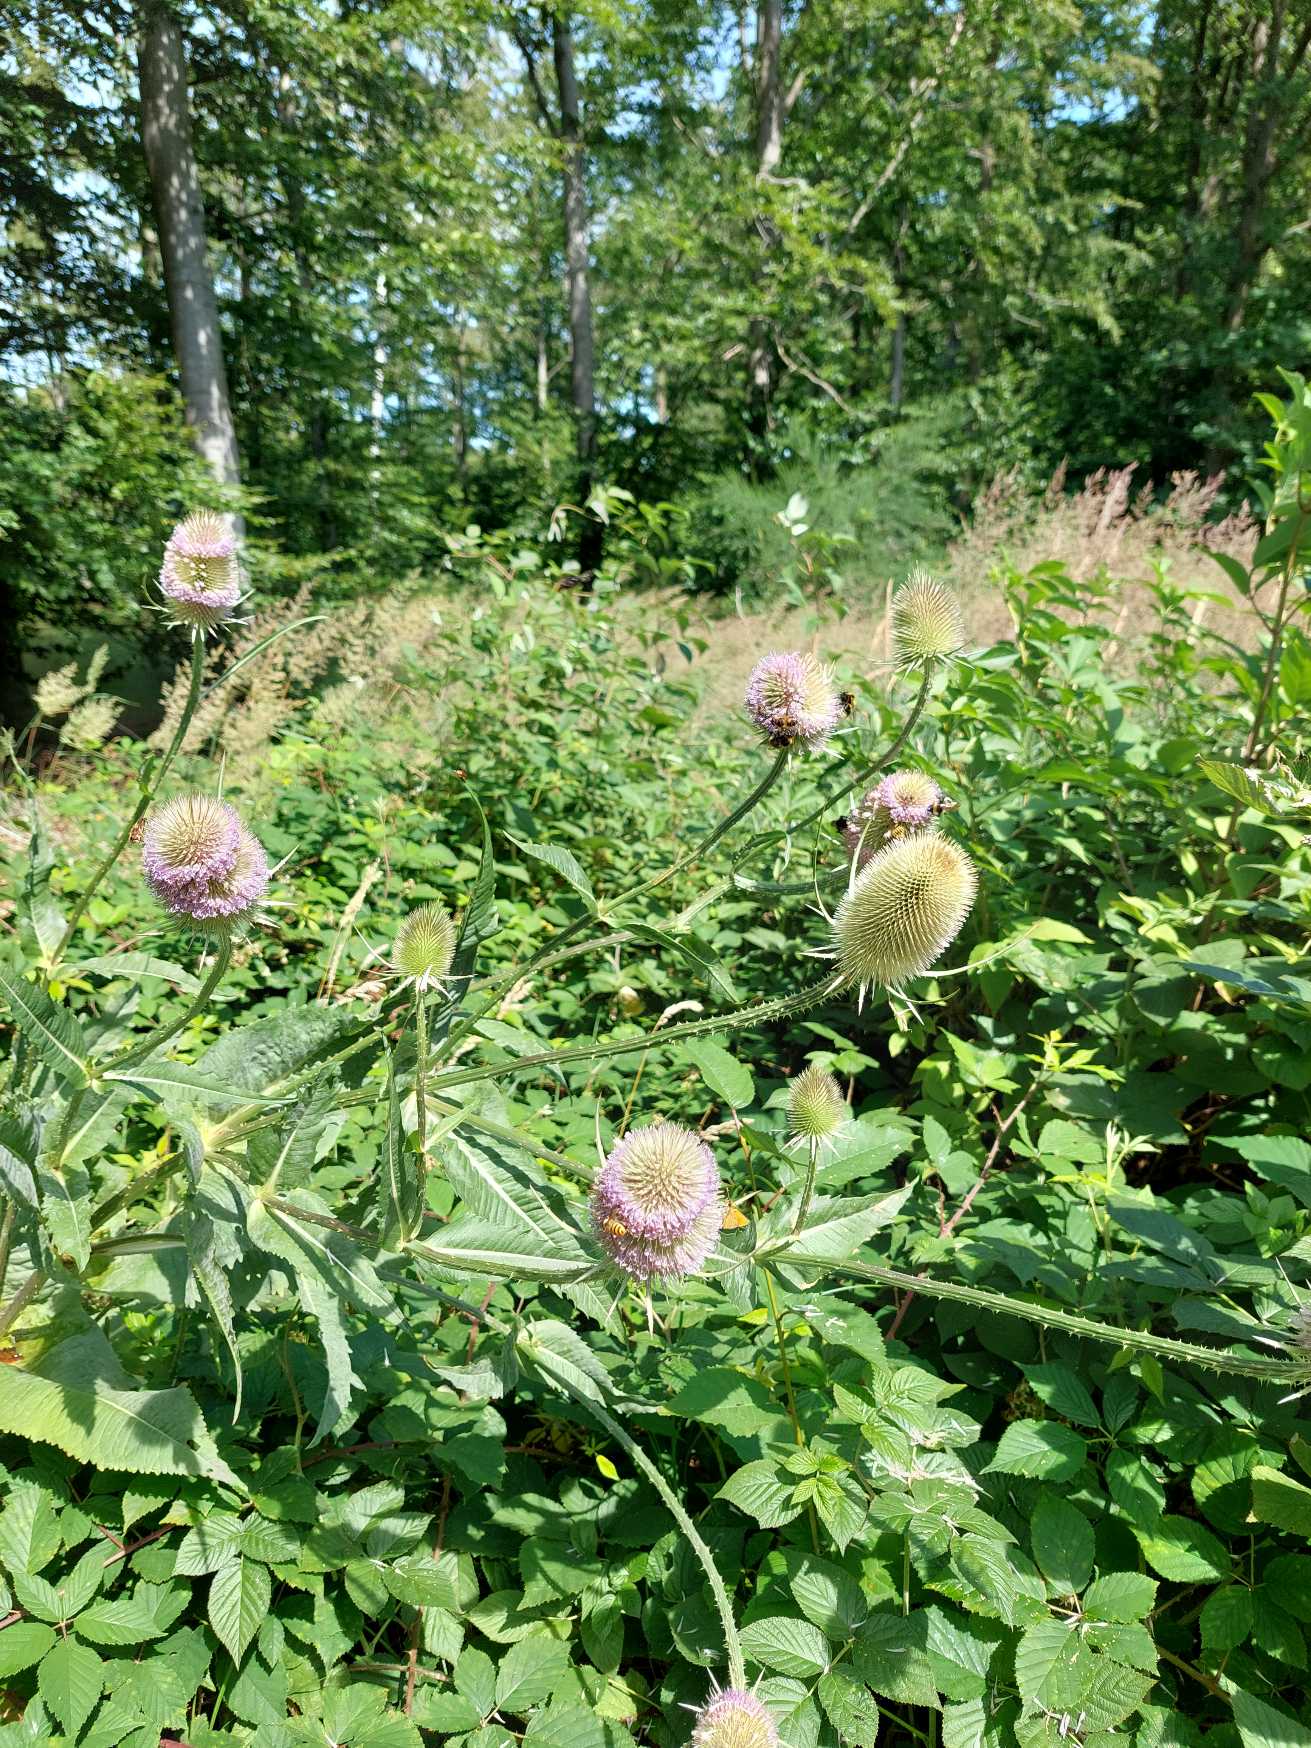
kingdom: Plantae
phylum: Tracheophyta
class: Magnoliopsida
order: Dipsacales
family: Caprifoliaceae
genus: Dipsacus
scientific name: Dipsacus fullonum
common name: Gærde-kartebolle
